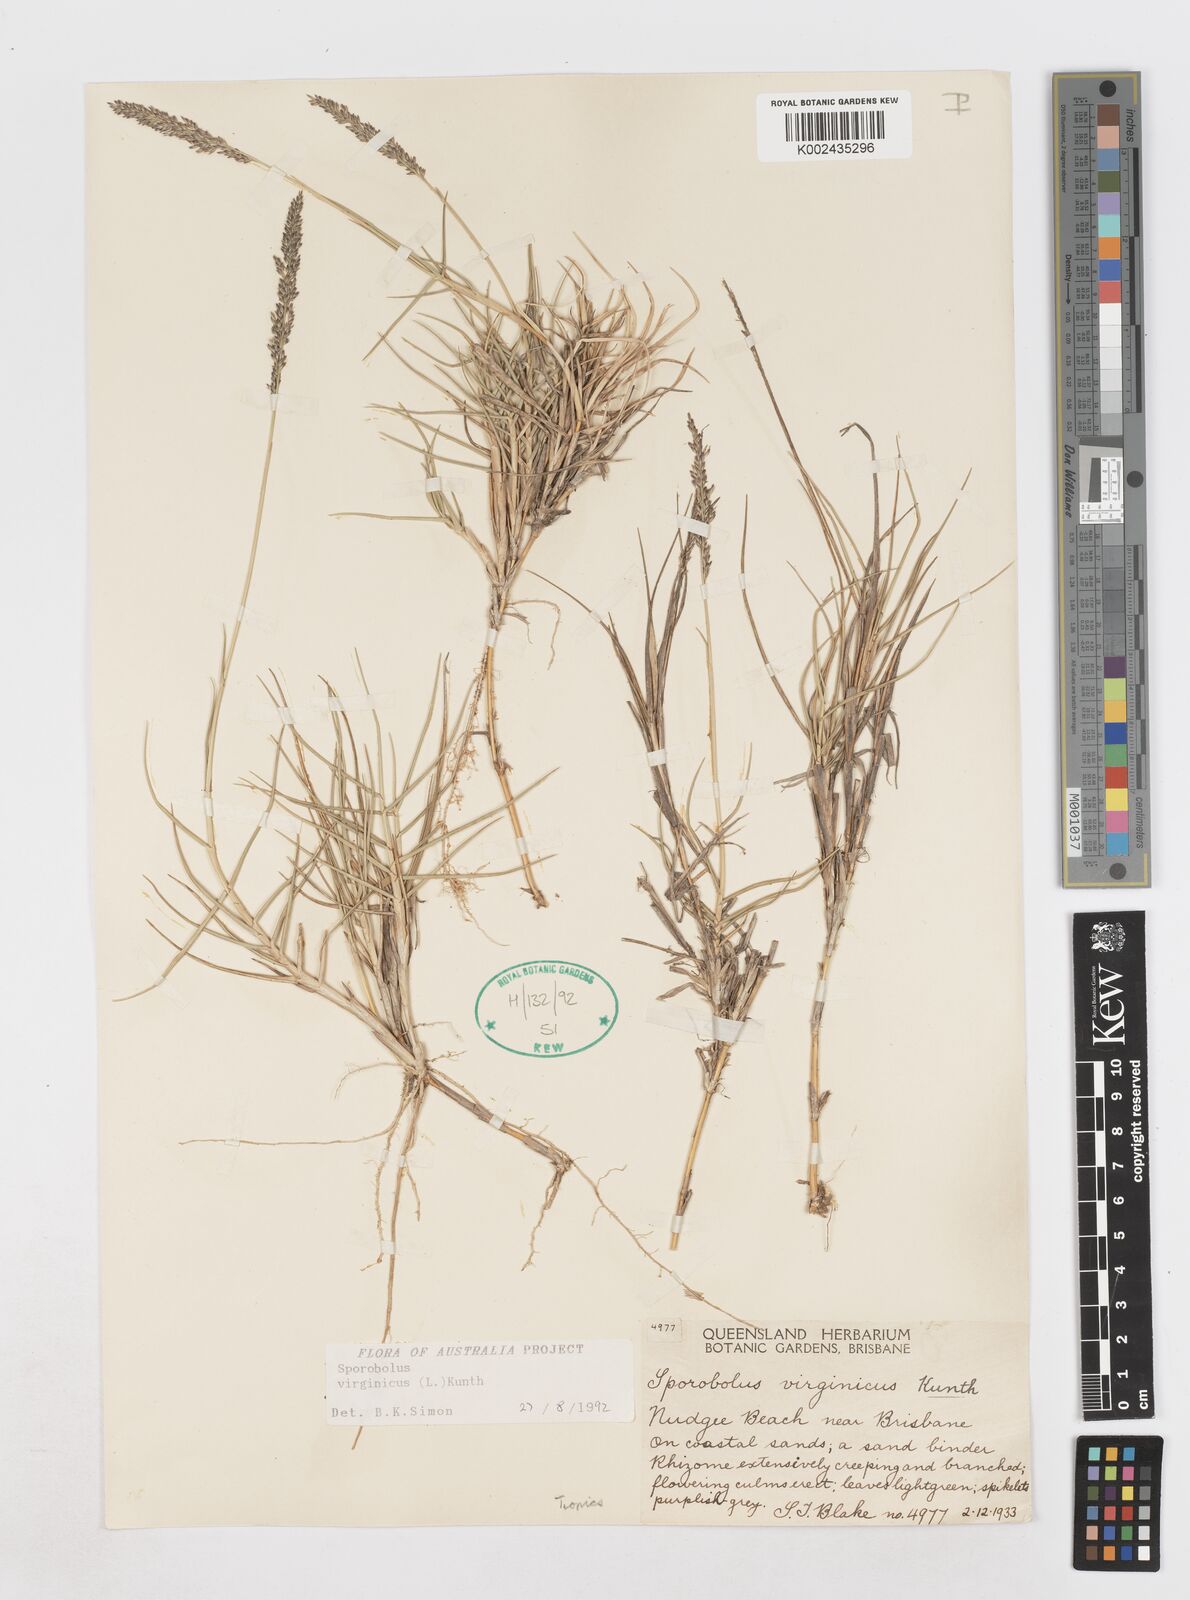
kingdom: Plantae
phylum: Tracheophyta
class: Liliopsida
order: Poales
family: Poaceae
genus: Sporobolus
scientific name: Sporobolus virginicus
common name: Beach dropseed
